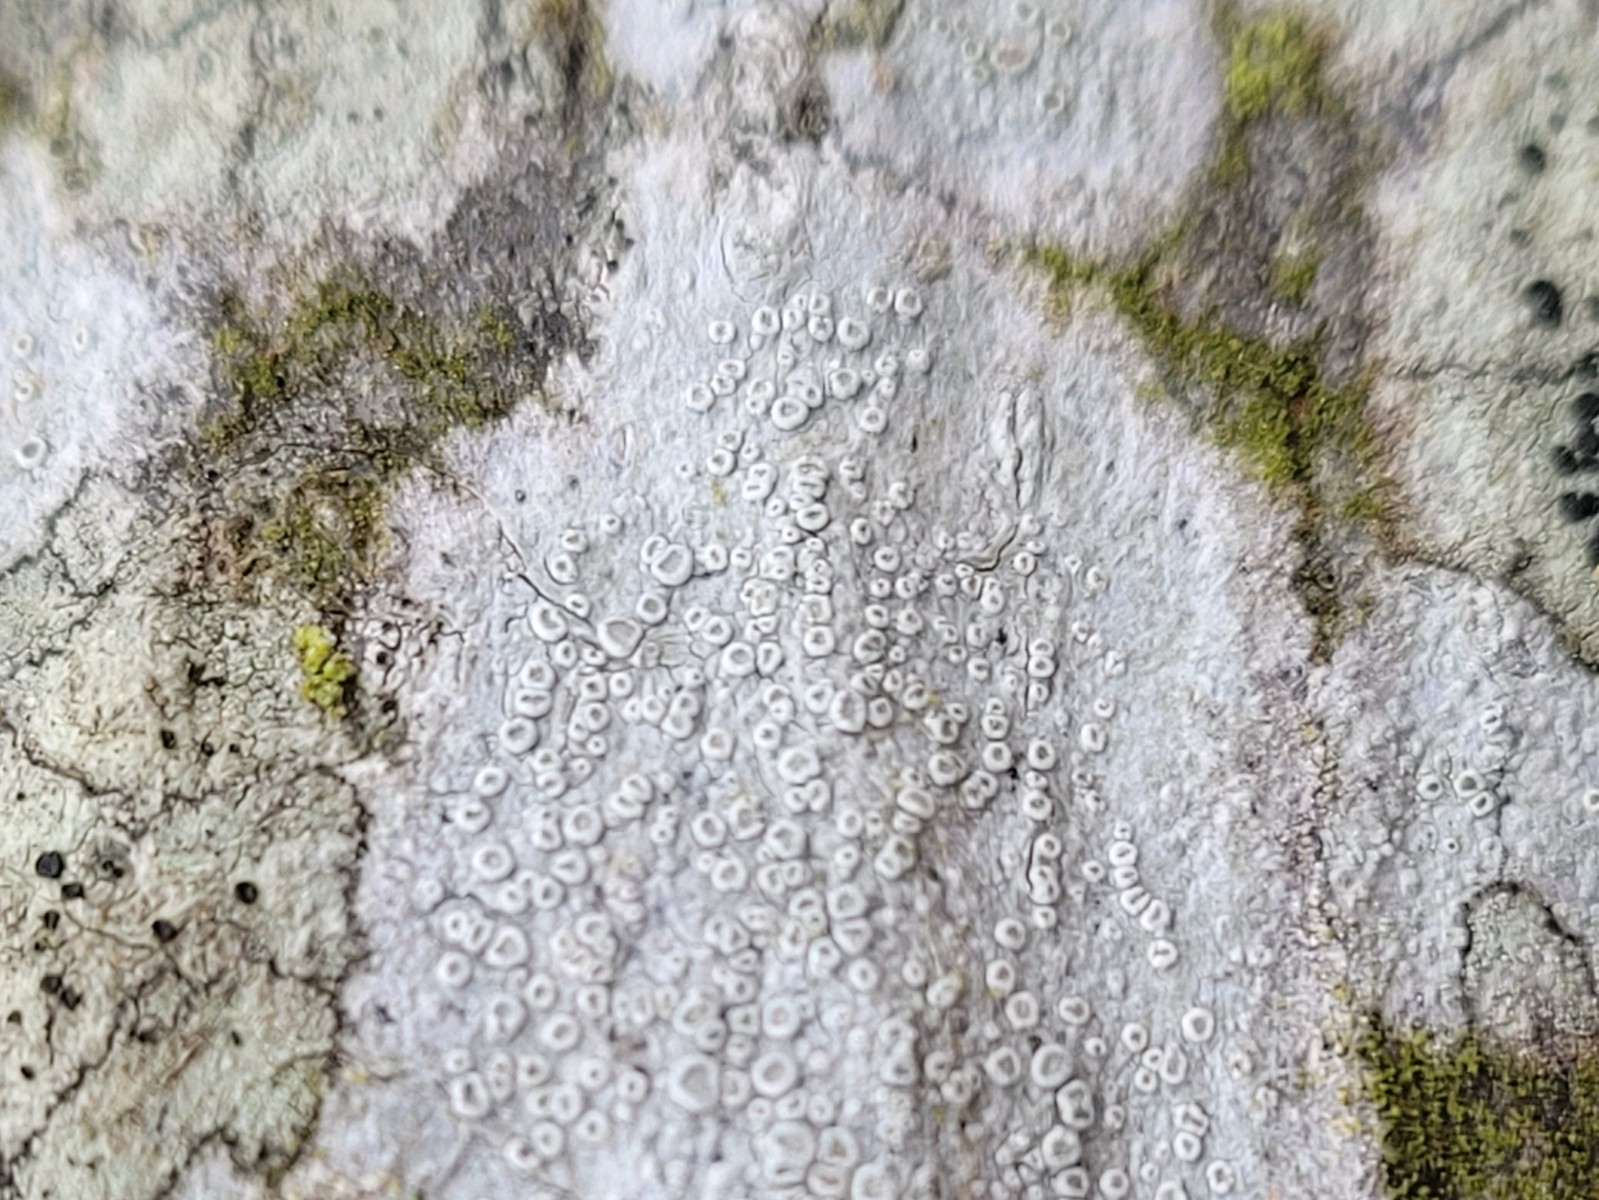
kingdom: Fungi
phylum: Ascomycota
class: Lecanoromycetes
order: Lecanorales
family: Lecanoraceae
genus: Glaucomaria
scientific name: Glaucomaria carpinea
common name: hviddugget kantskivelav
